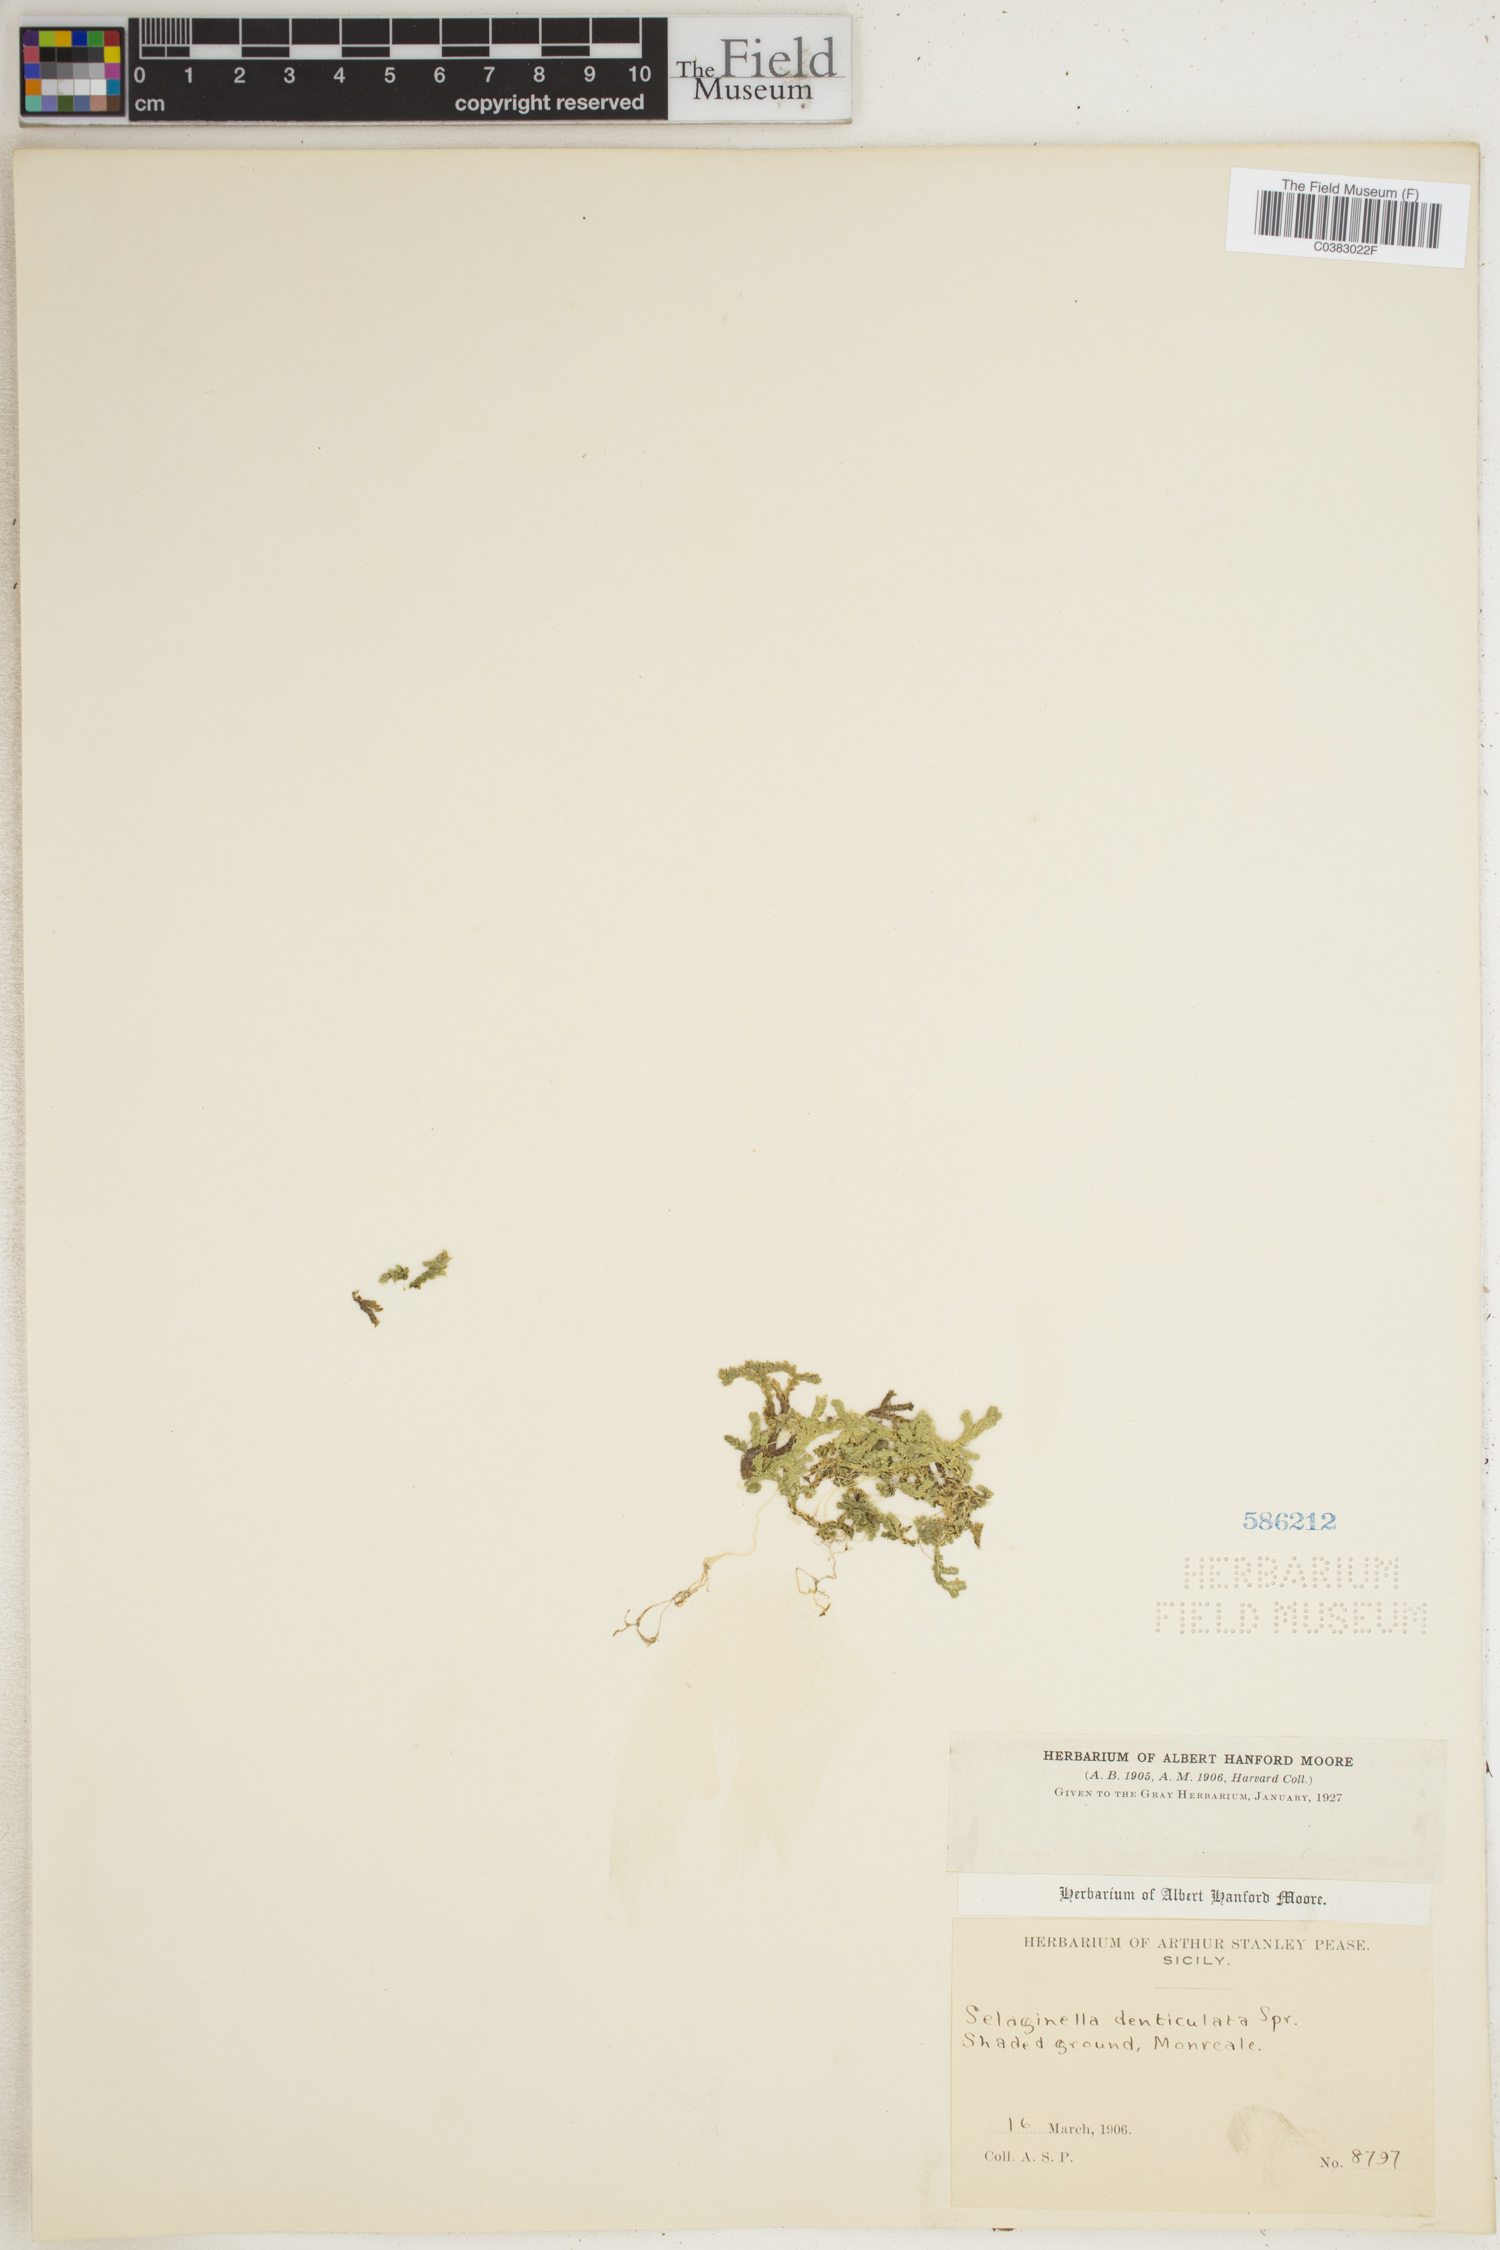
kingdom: Plantae
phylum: Tracheophyta
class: Lycopodiopsida
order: Selaginellales
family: Selaginellaceae
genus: Selaginella
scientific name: Selaginella denticulata
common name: Toothed-leaved clubmoss
